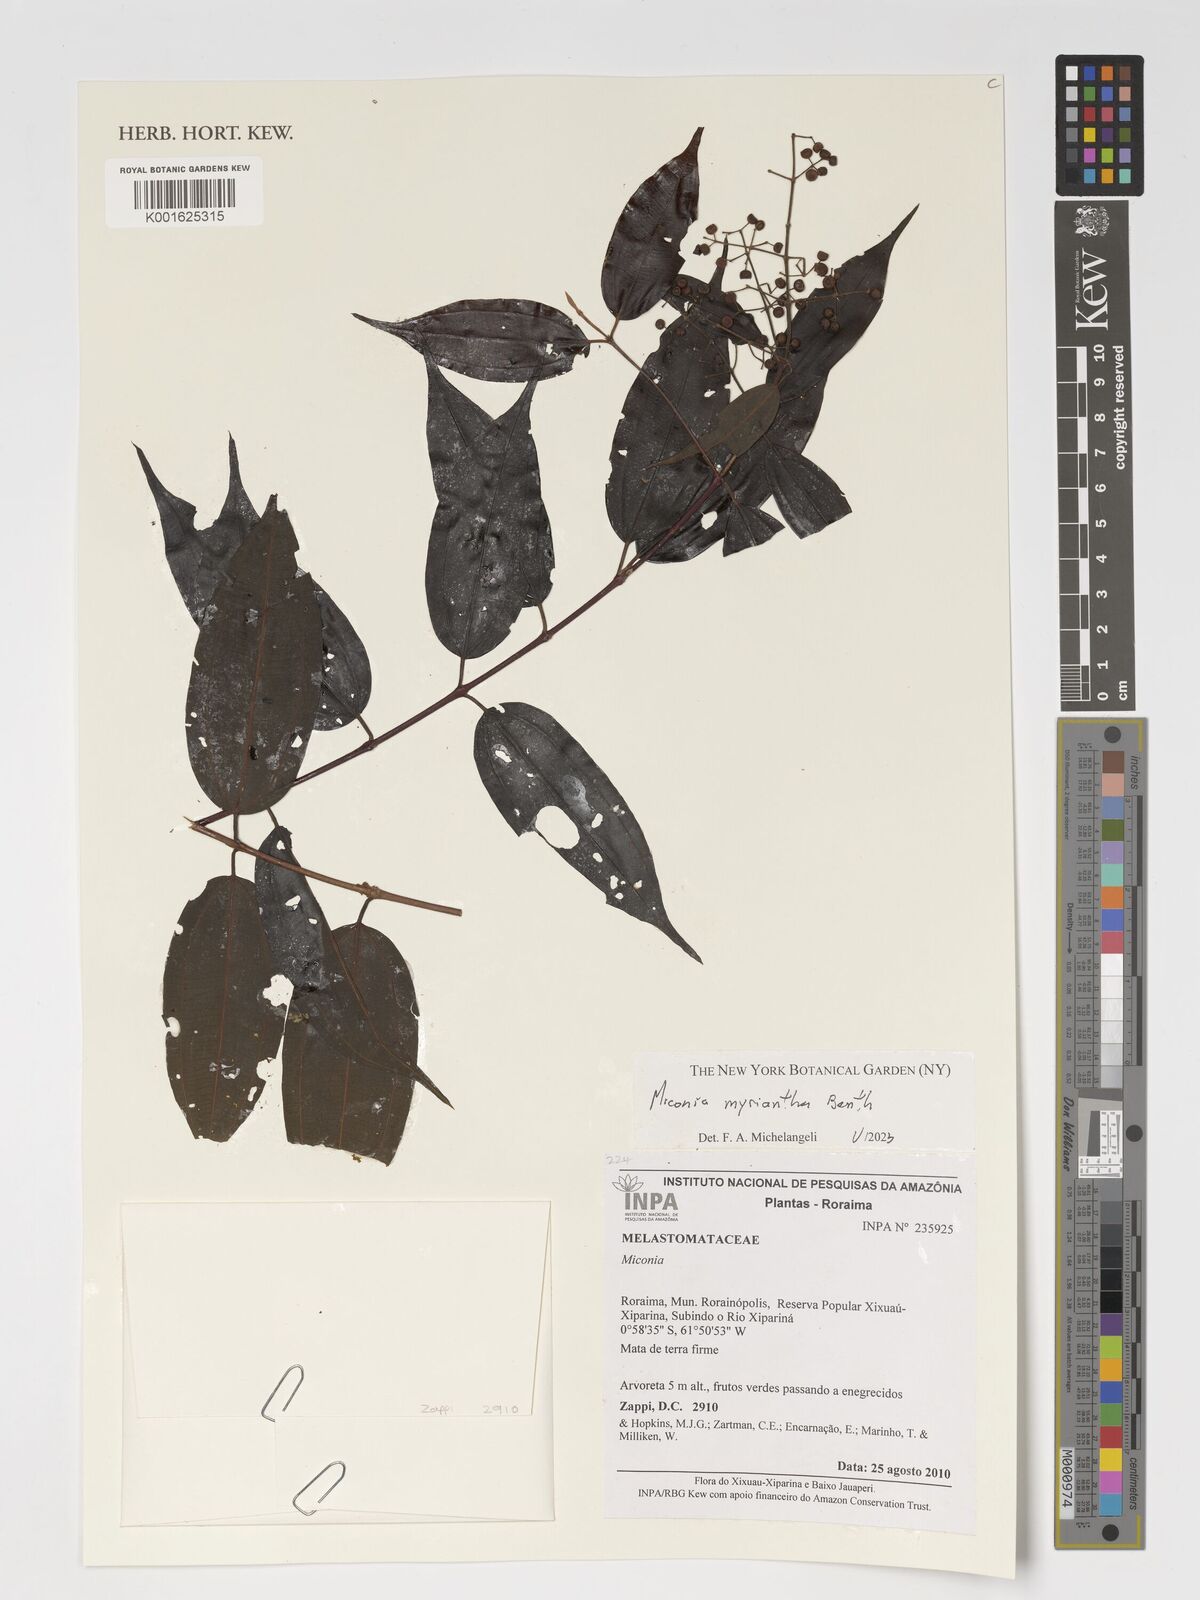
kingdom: Plantae
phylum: Tracheophyta
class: Magnoliopsida
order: Myrtales
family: Melastomataceae
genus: Miconia
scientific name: Miconia myriantha
